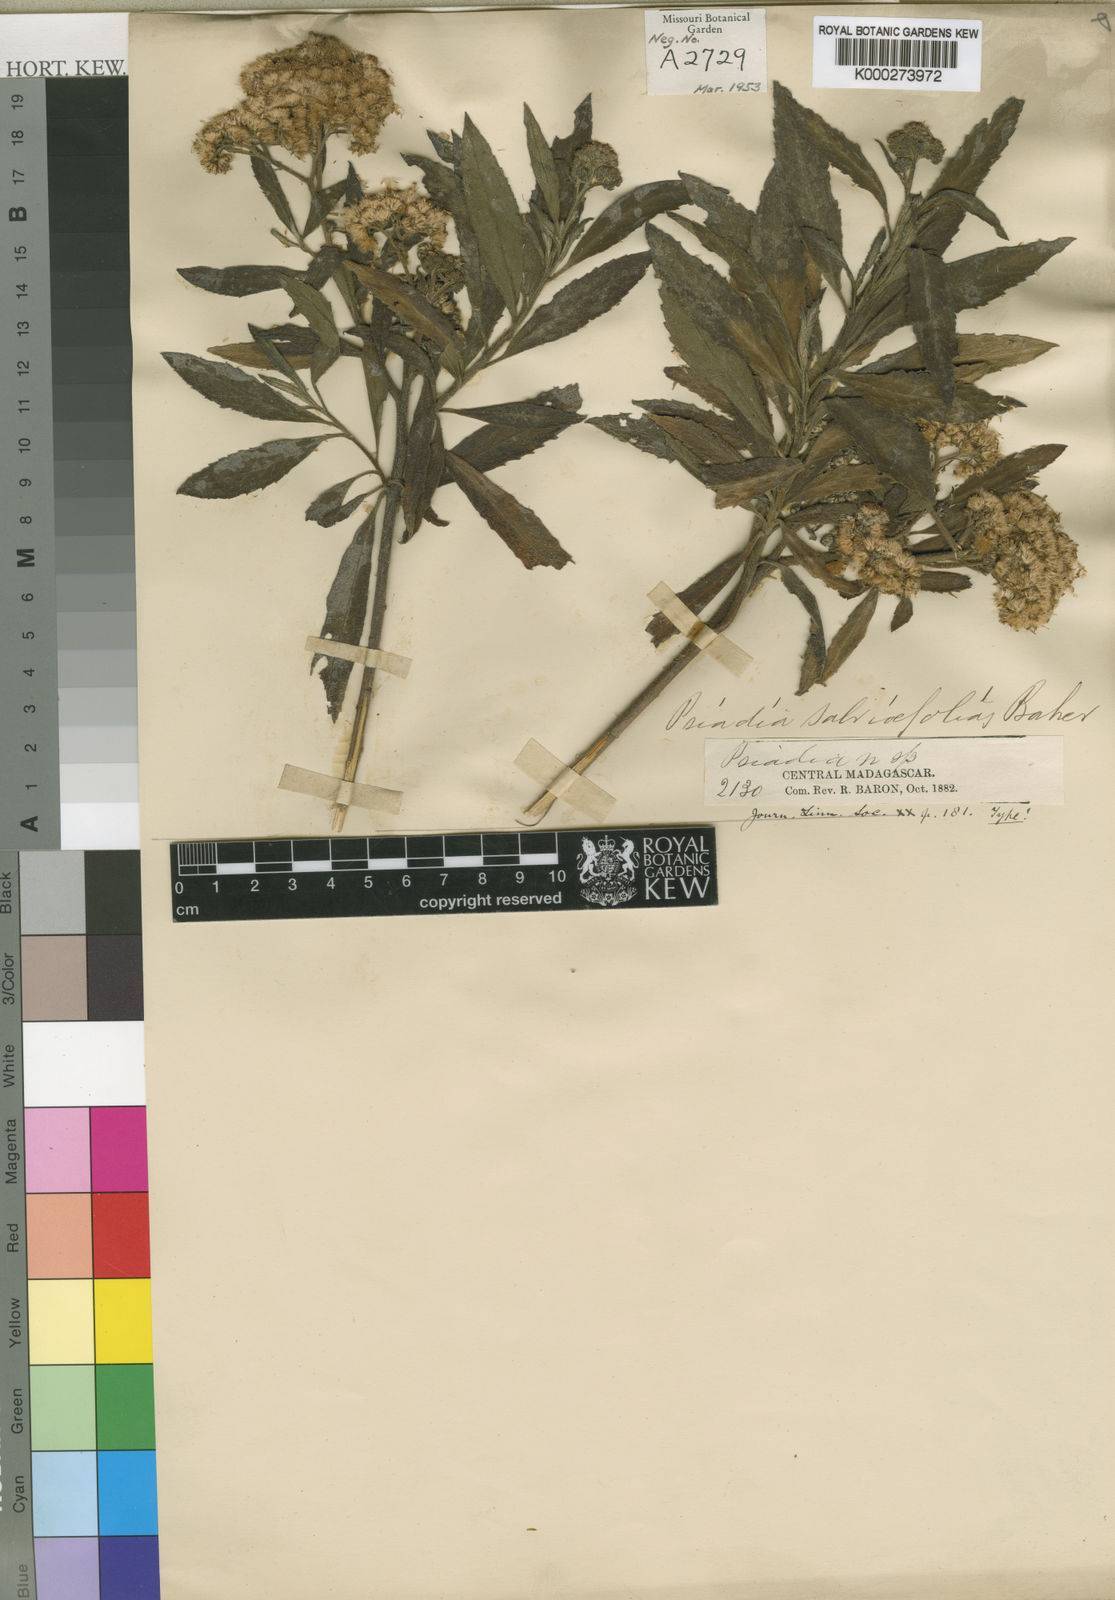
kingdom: Plantae
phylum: Tracheophyta
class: Magnoliopsida
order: Asterales
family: Asteraceae
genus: Psiadia
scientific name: Psiadia
